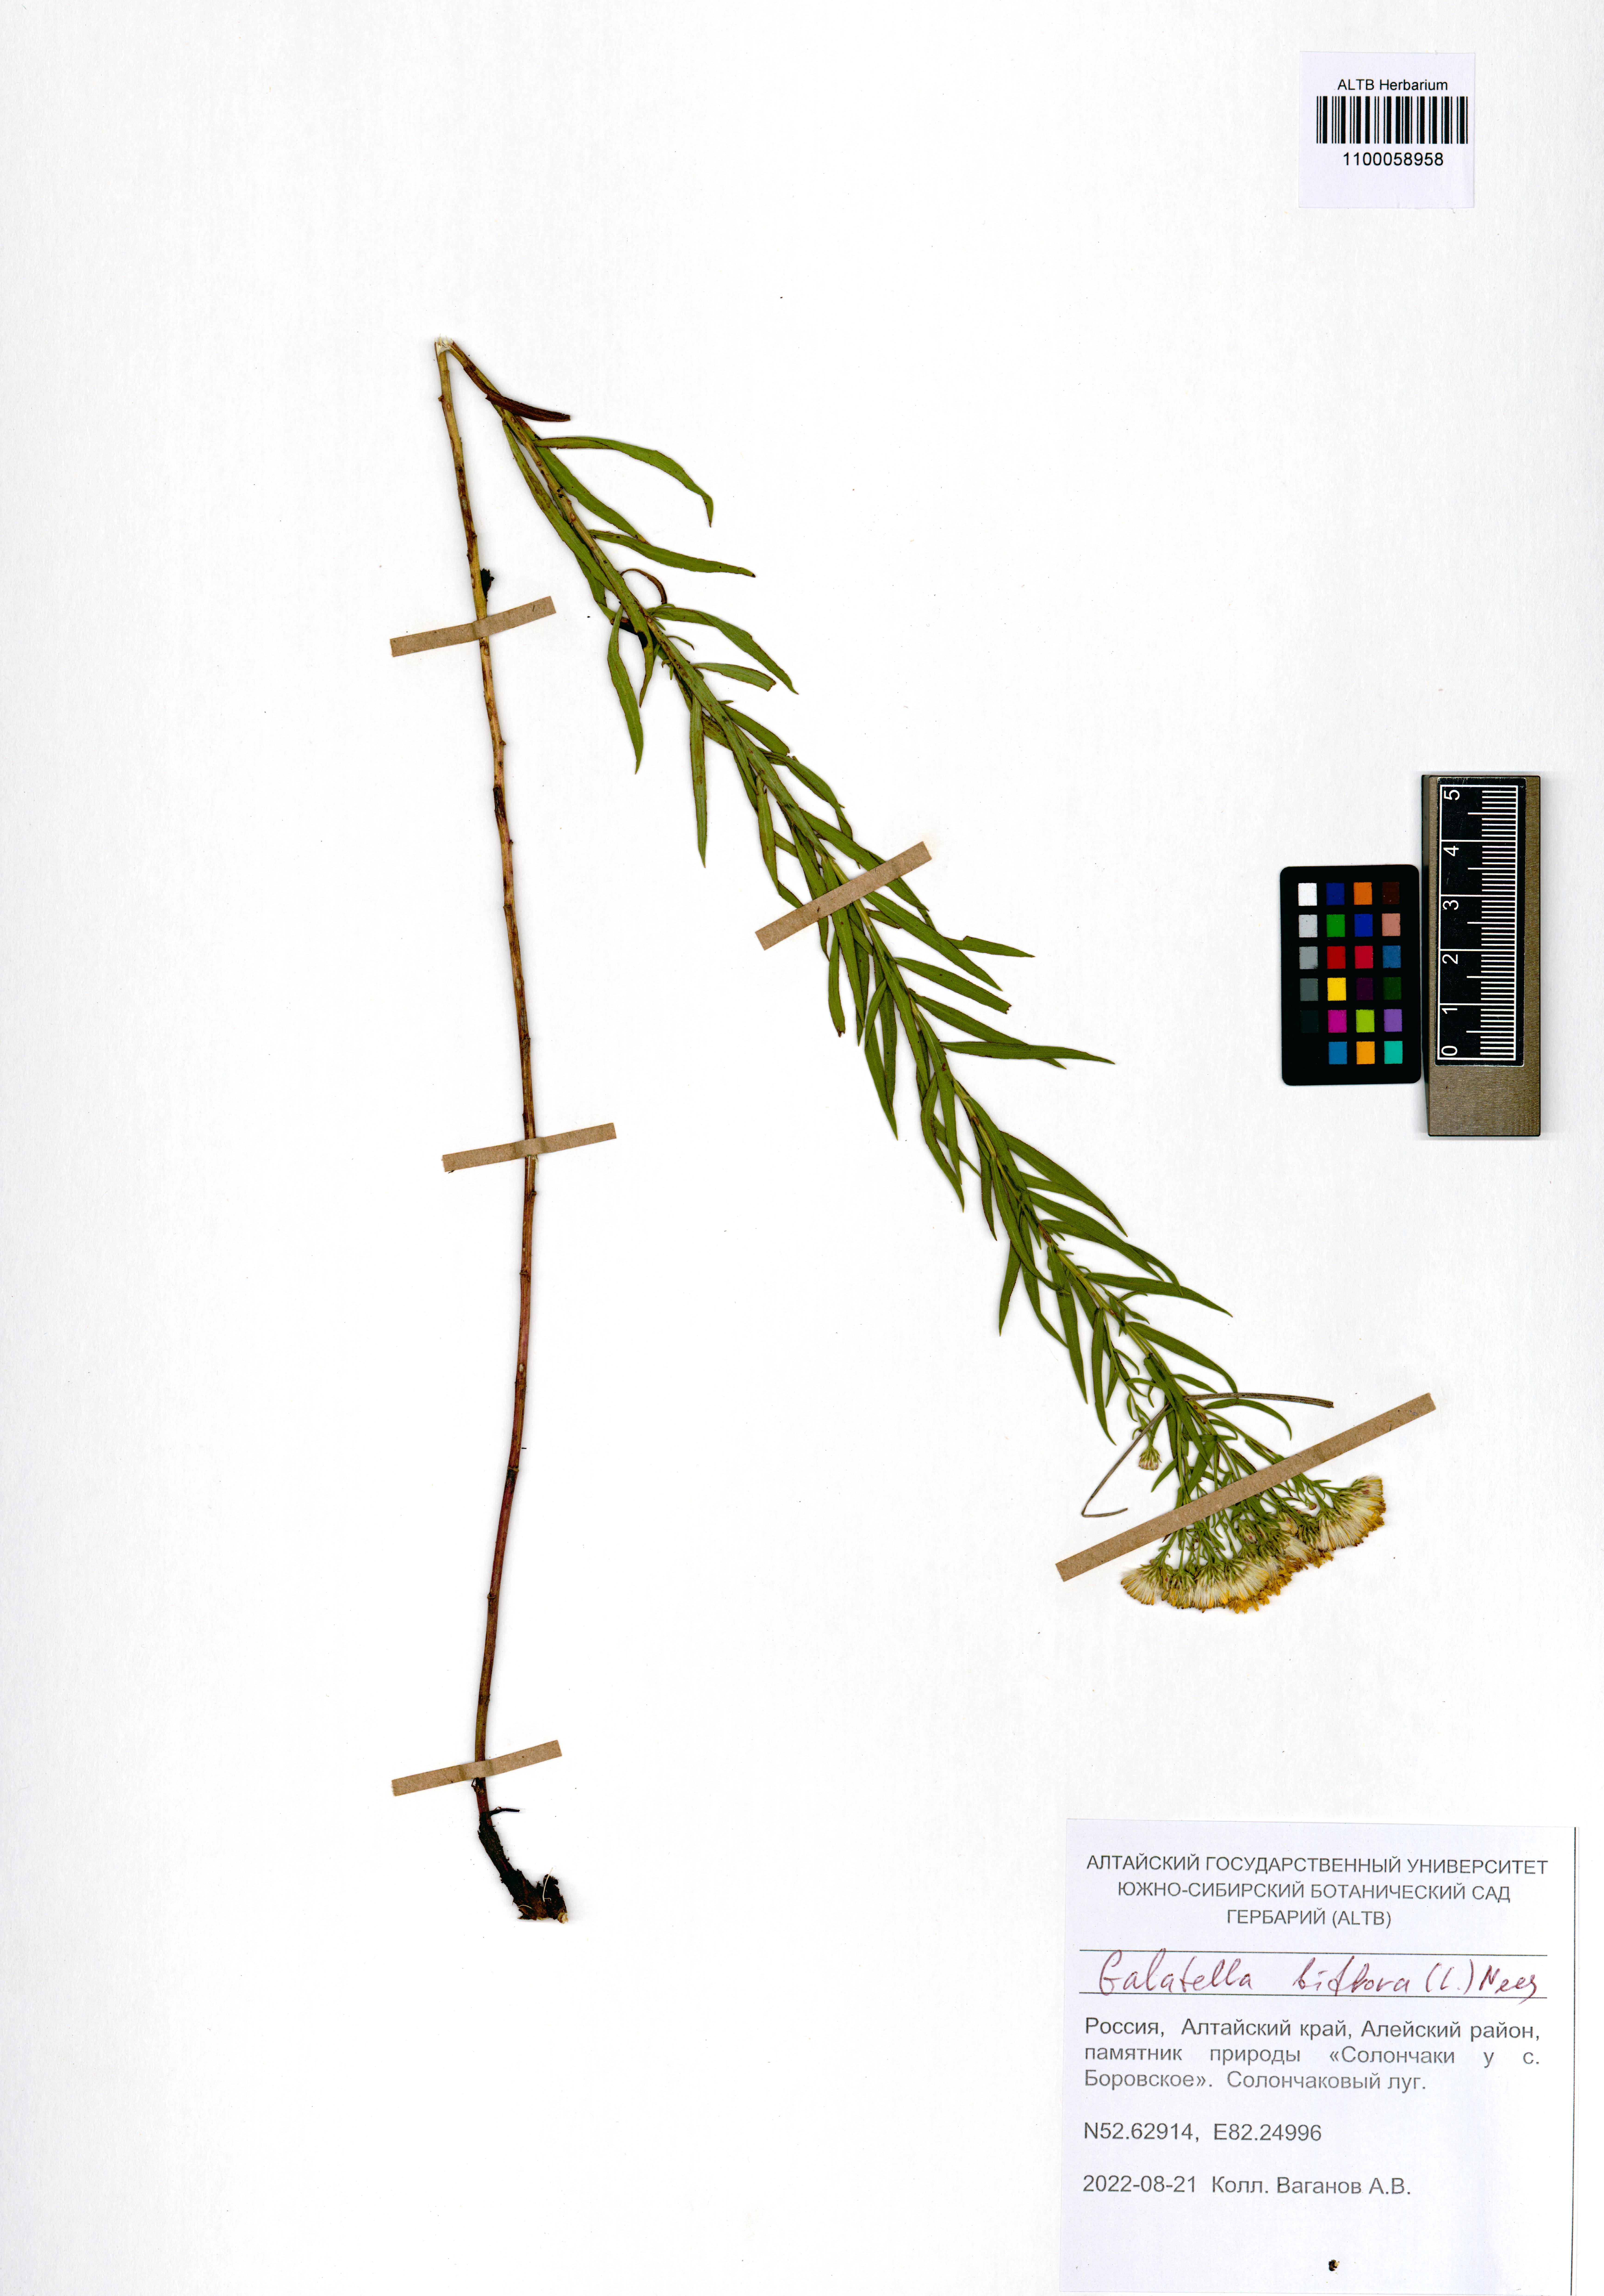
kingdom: Plantae
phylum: Tracheophyta
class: Magnoliopsida
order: Asterales
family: Asteraceae
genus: Galatella
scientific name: Galatella biflora
